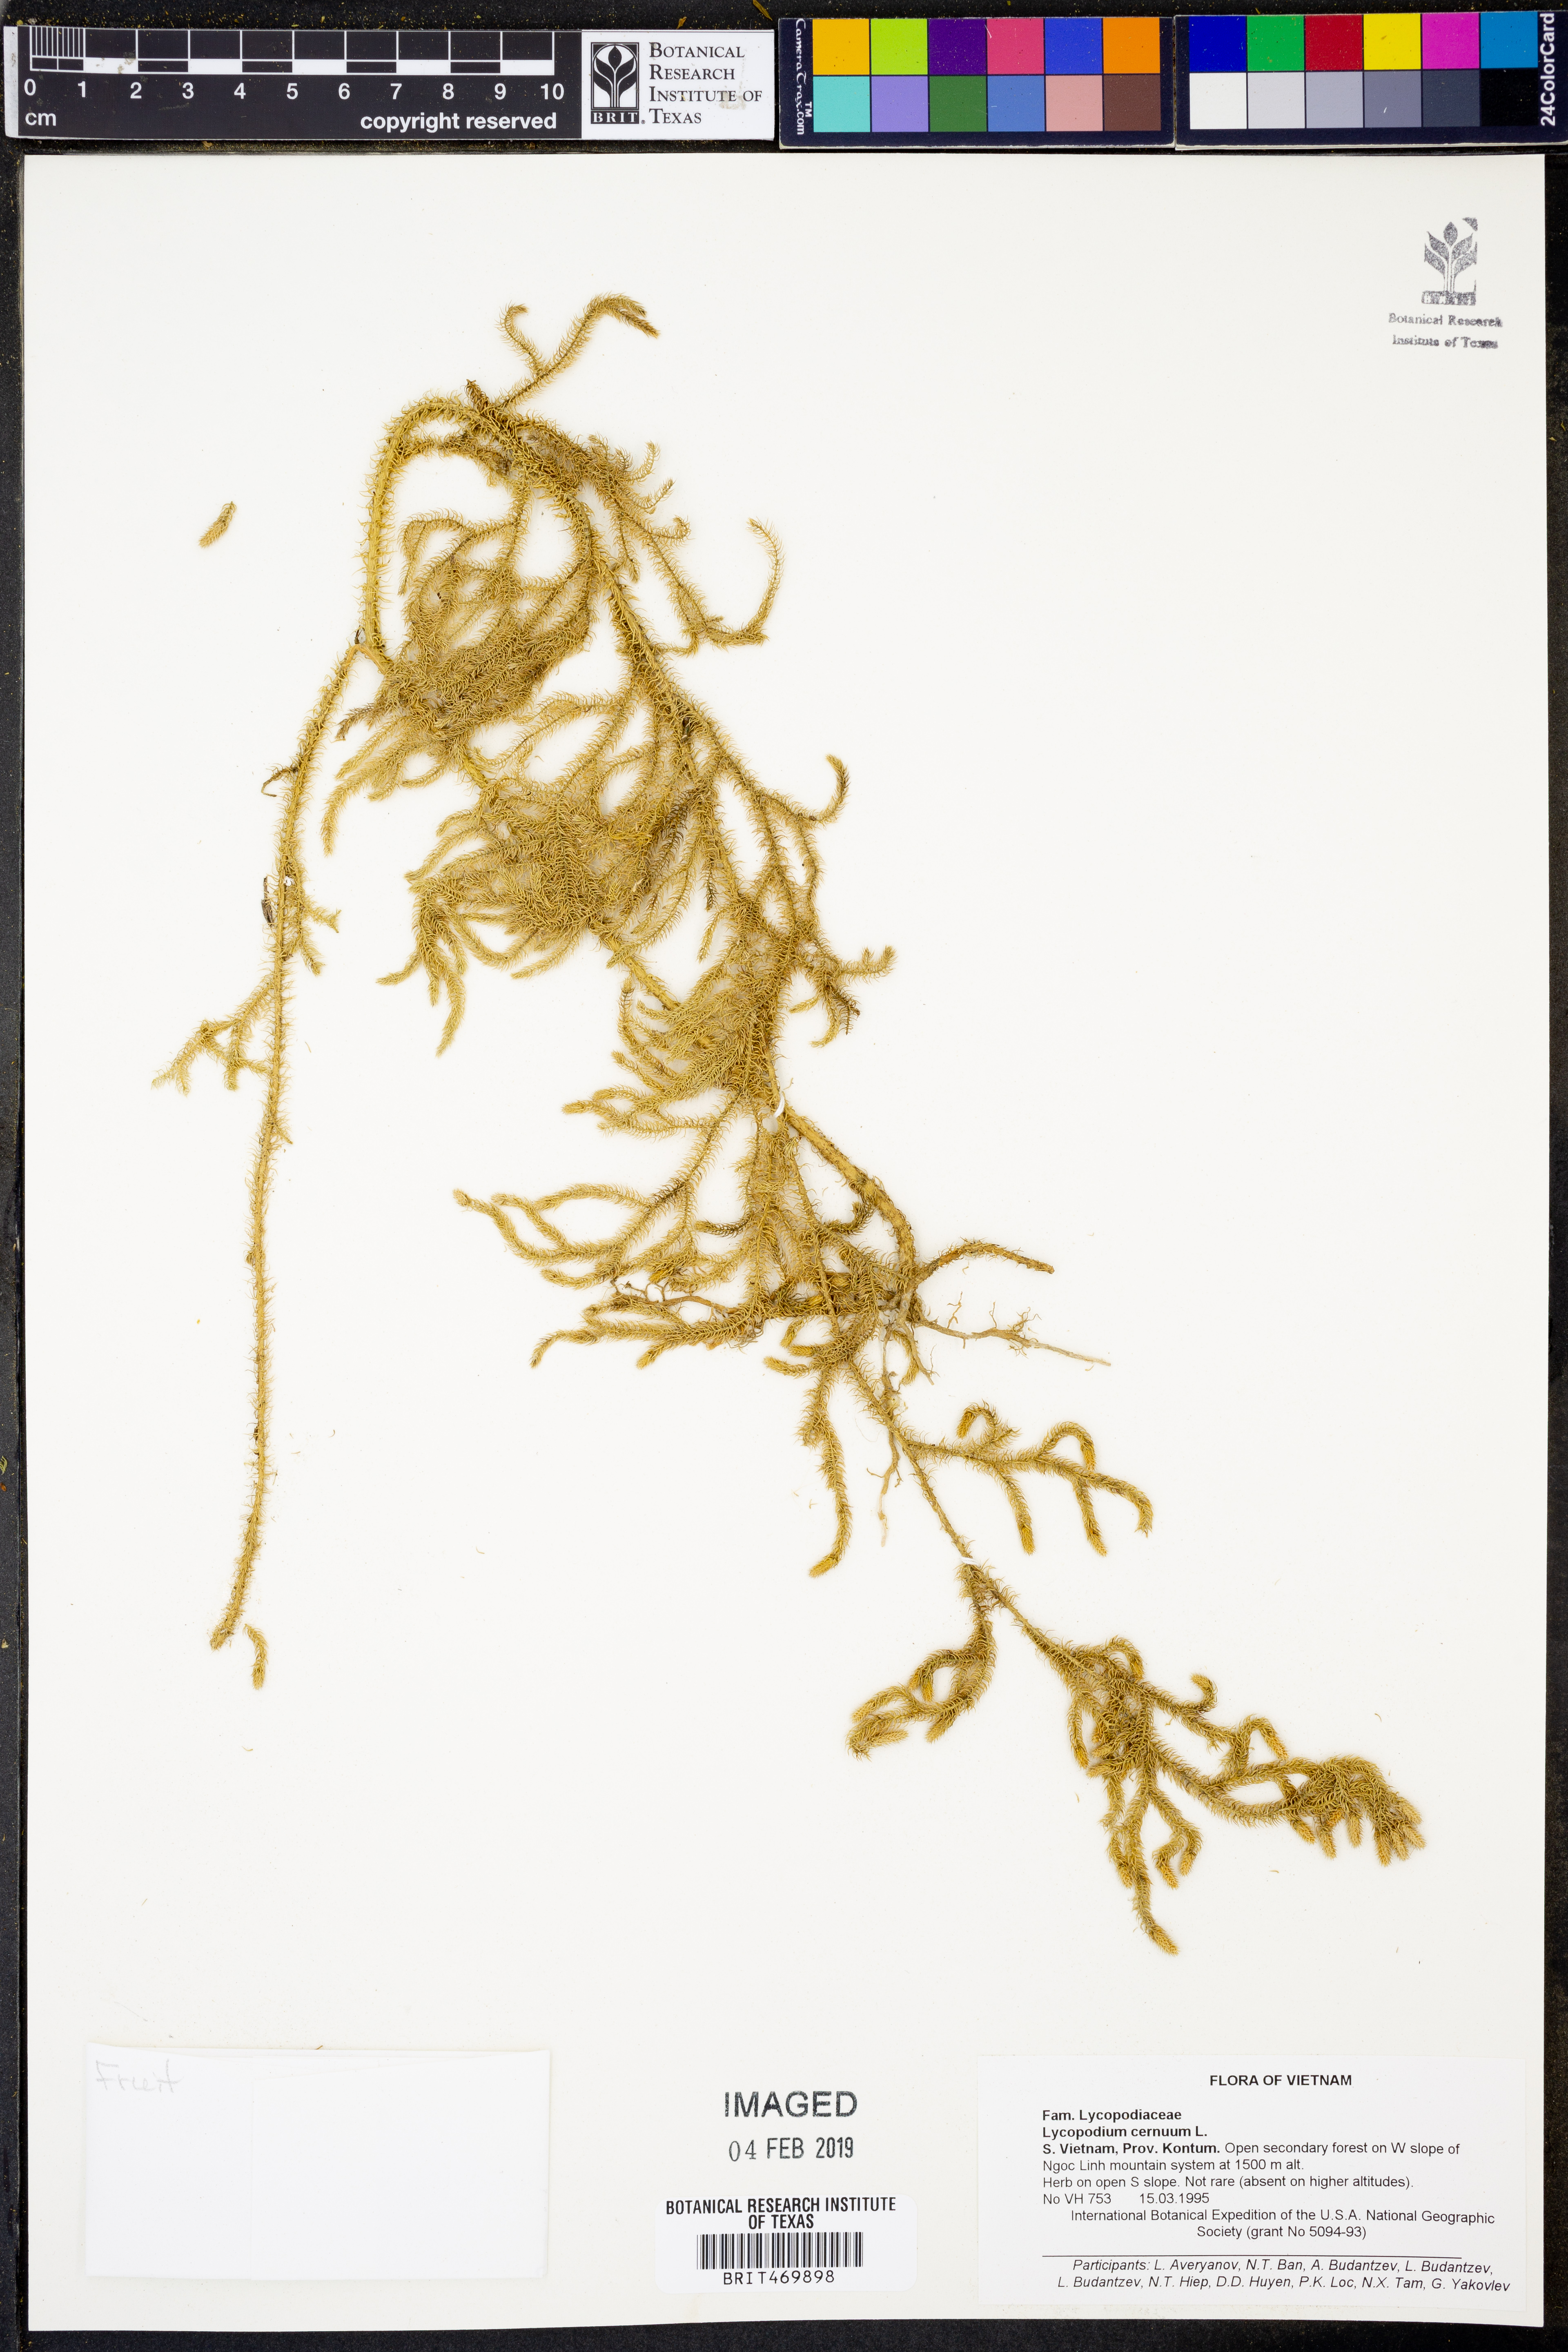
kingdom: Plantae
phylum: Tracheophyta
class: Lycopodiopsida
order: Lycopodiales
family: Lycopodiaceae
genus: Palhinhaea
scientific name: Palhinhaea cernua
